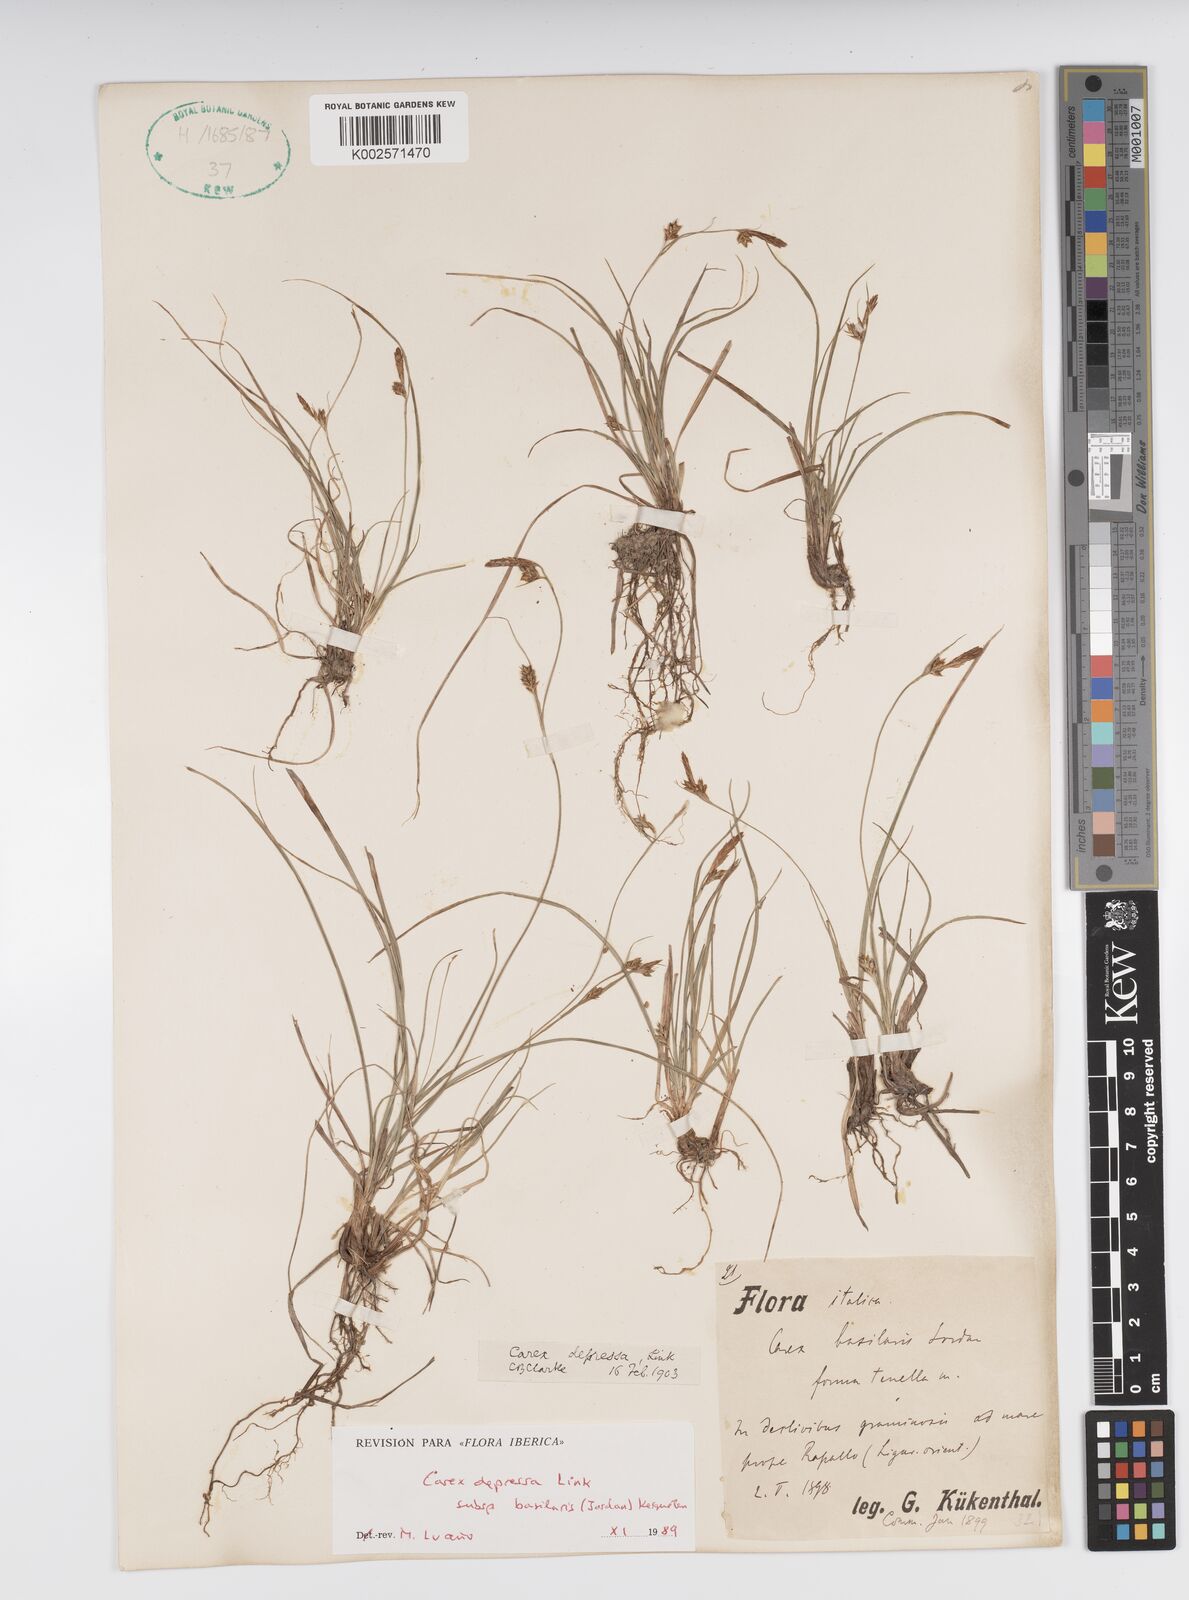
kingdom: Plantae
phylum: Tracheophyta
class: Liliopsida
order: Poales
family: Cyperaceae
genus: Carex
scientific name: Carex depressa
